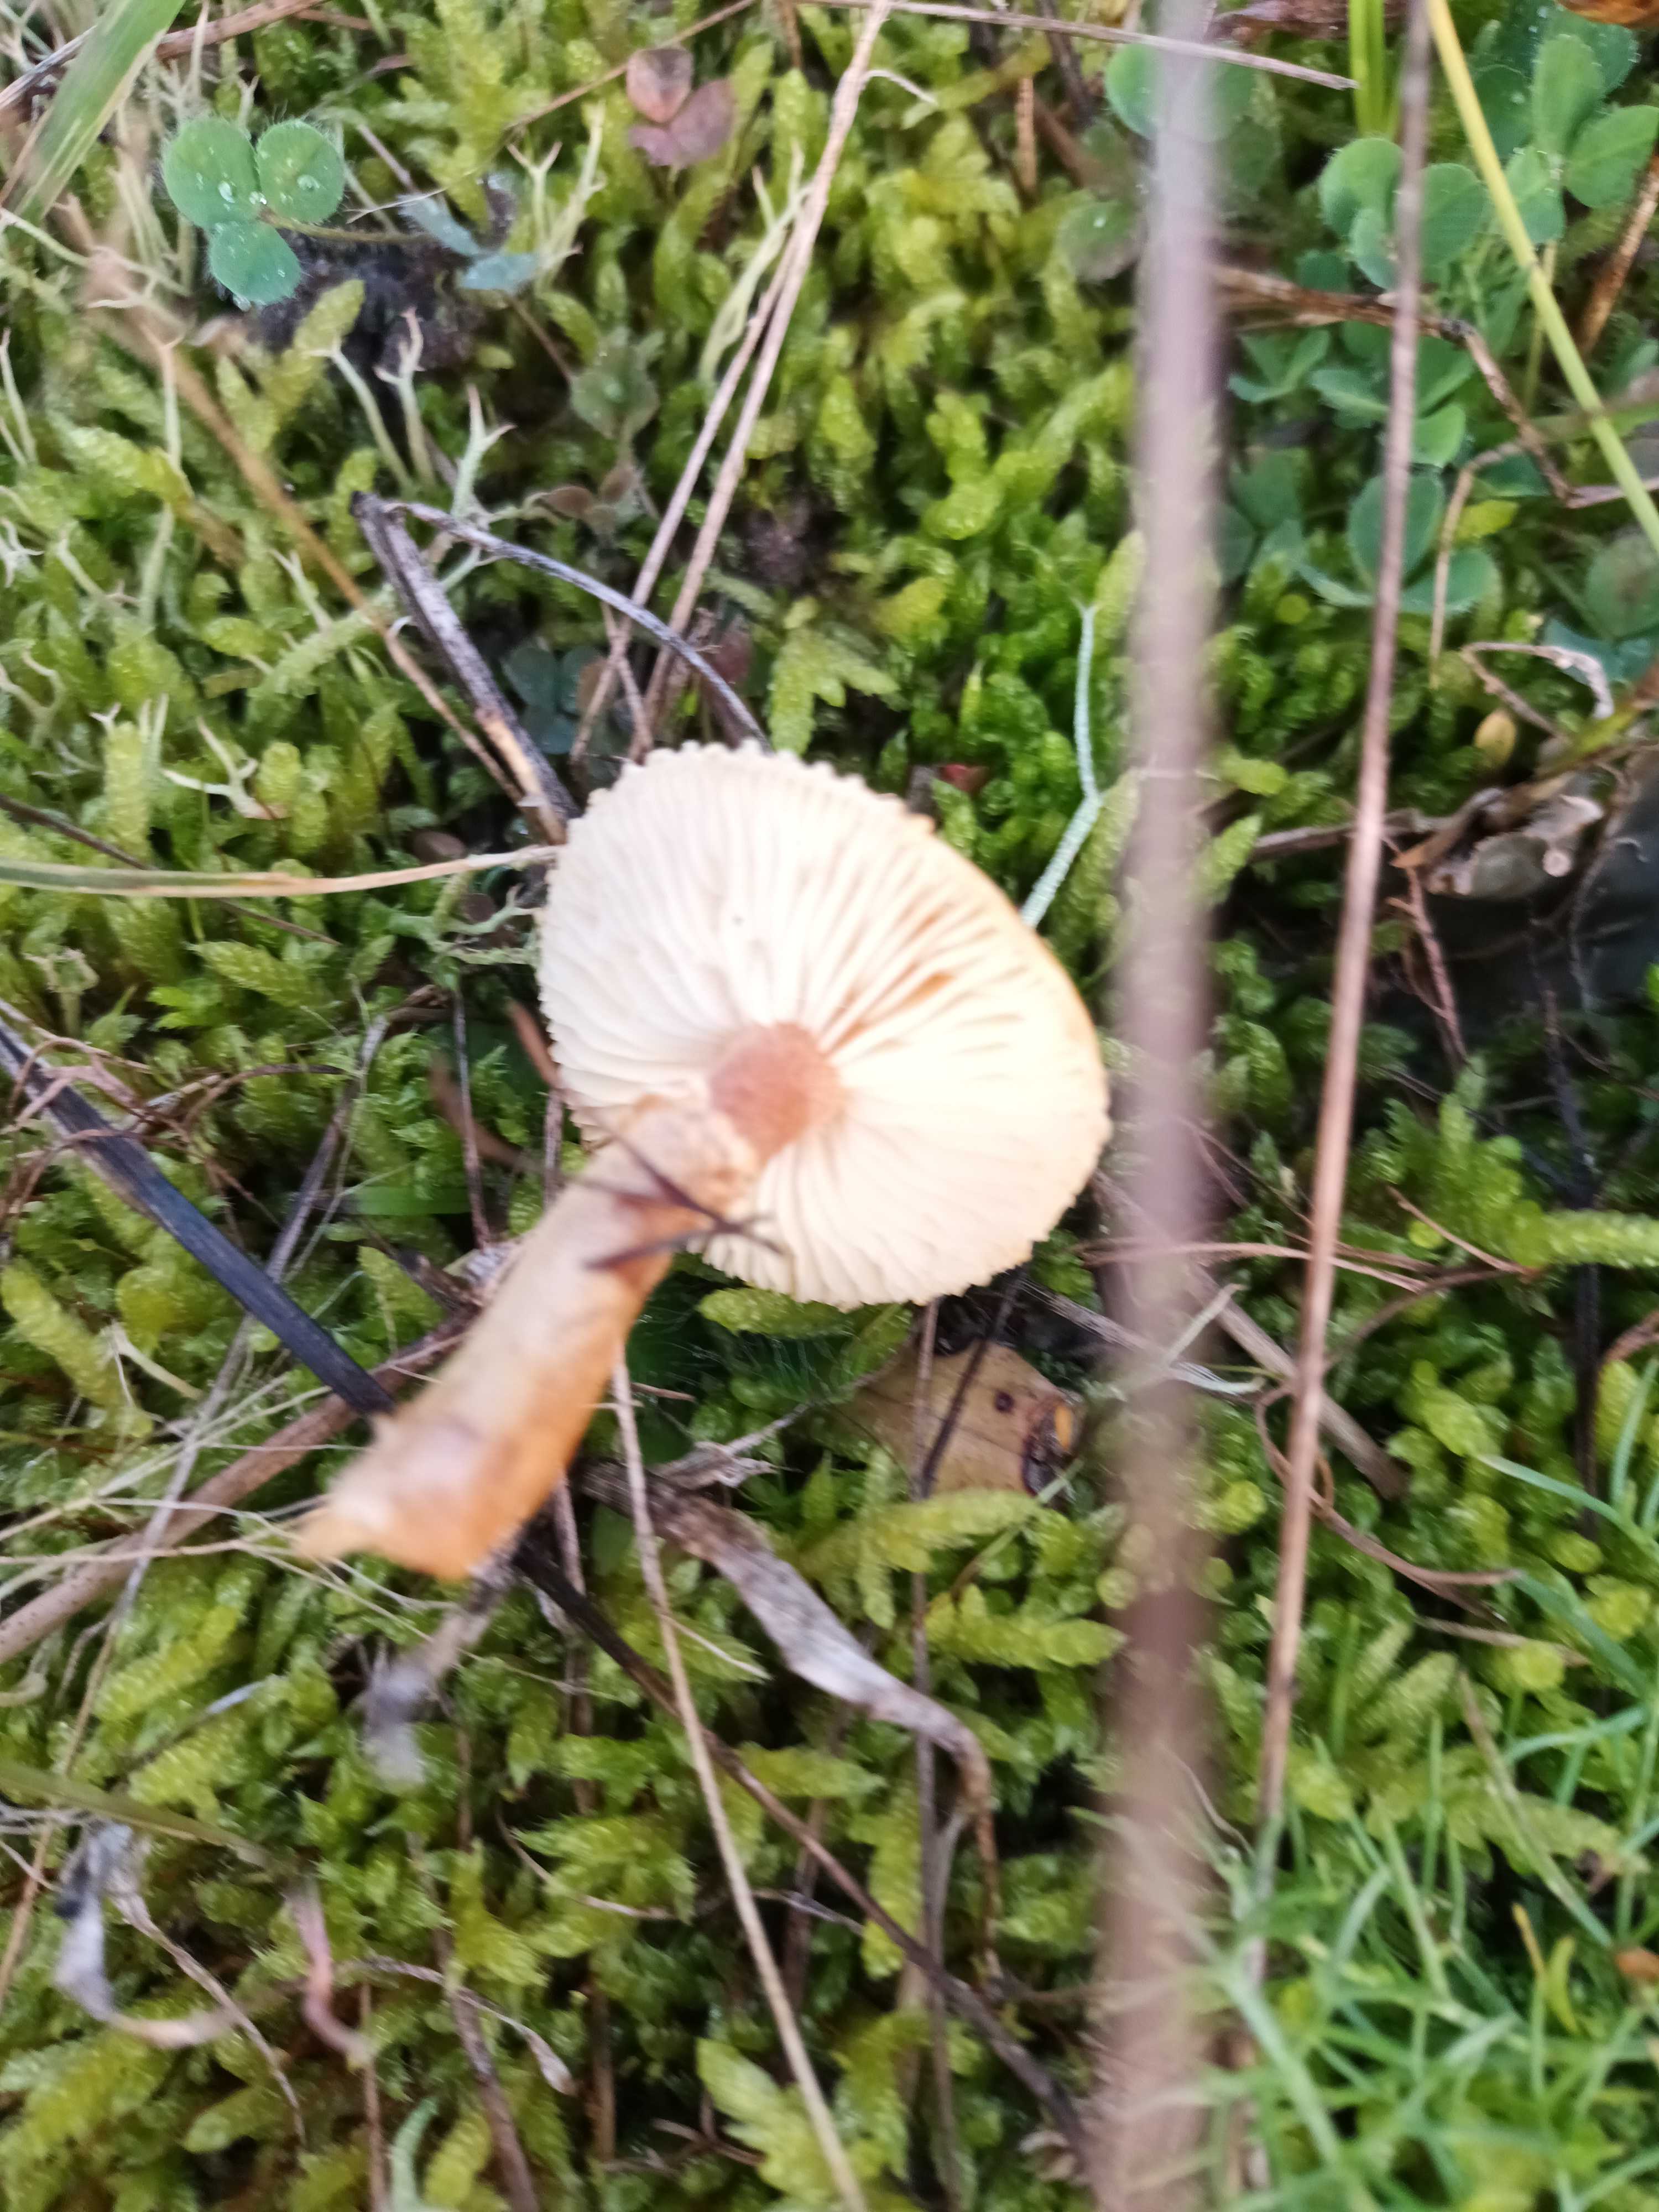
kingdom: Fungi
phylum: Basidiomycota
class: Agaricomycetes
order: Agaricales
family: Tricholomataceae
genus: Cystoderma
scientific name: Cystoderma amianthinum
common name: okkergul grynhat
